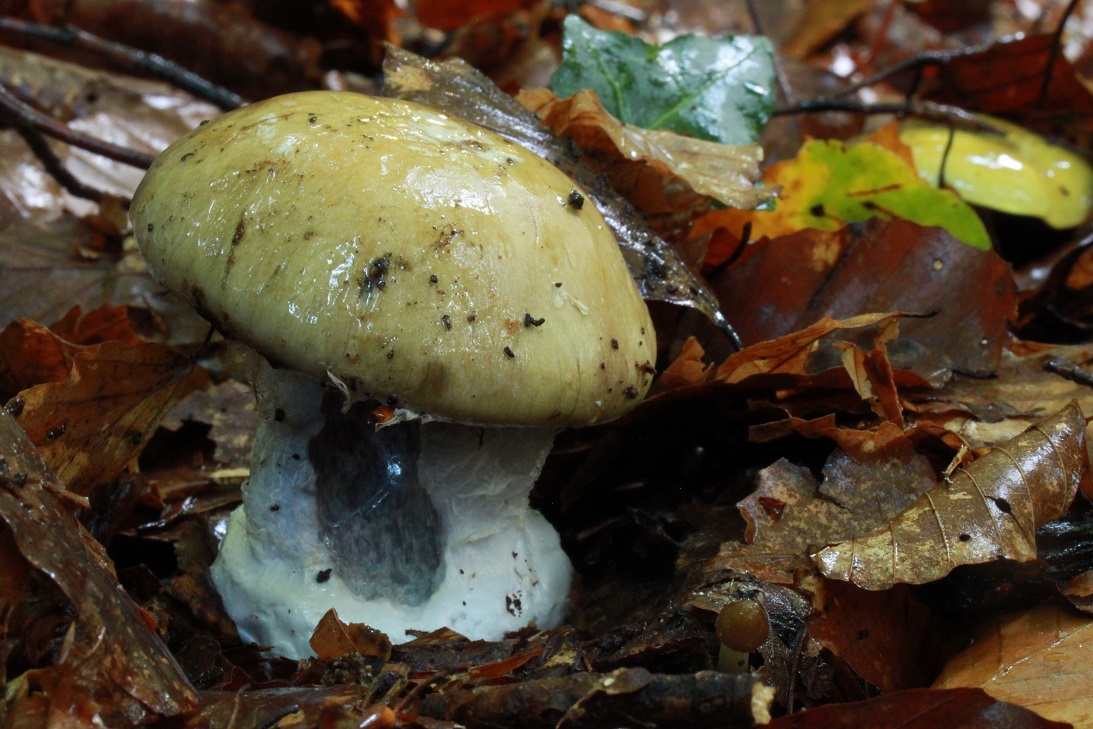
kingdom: Fungi
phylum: Basidiomycota
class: Agaricomycetes
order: Agaricales
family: Cortinariaceae
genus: Cortinarius
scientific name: Cortinarius anserinus
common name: bøge-slørhat
